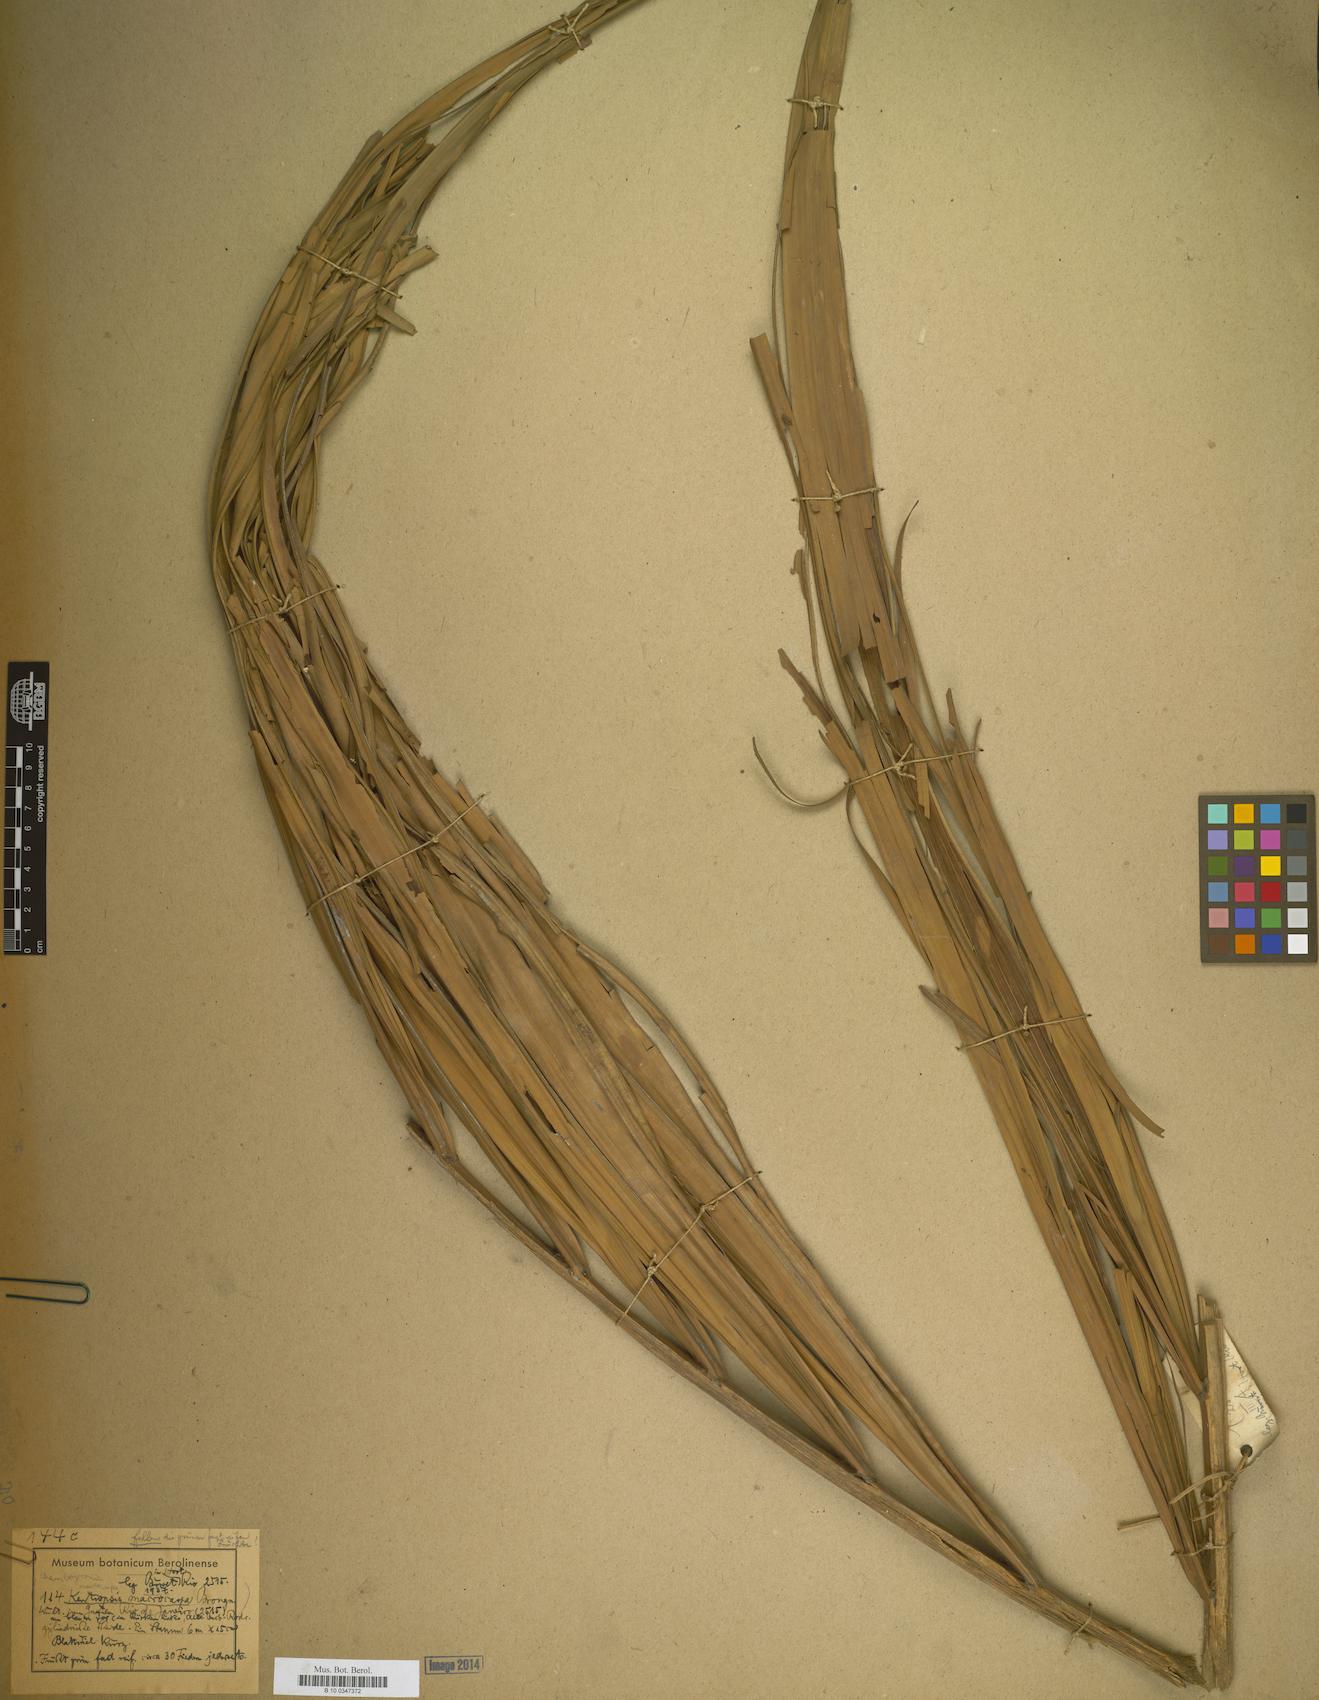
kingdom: Plantae
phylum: Tracheophyta
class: Liliopsida
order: Arecales
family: Arecaceae
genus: Chambeyronia
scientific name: Chambeyronia macrocarpa
